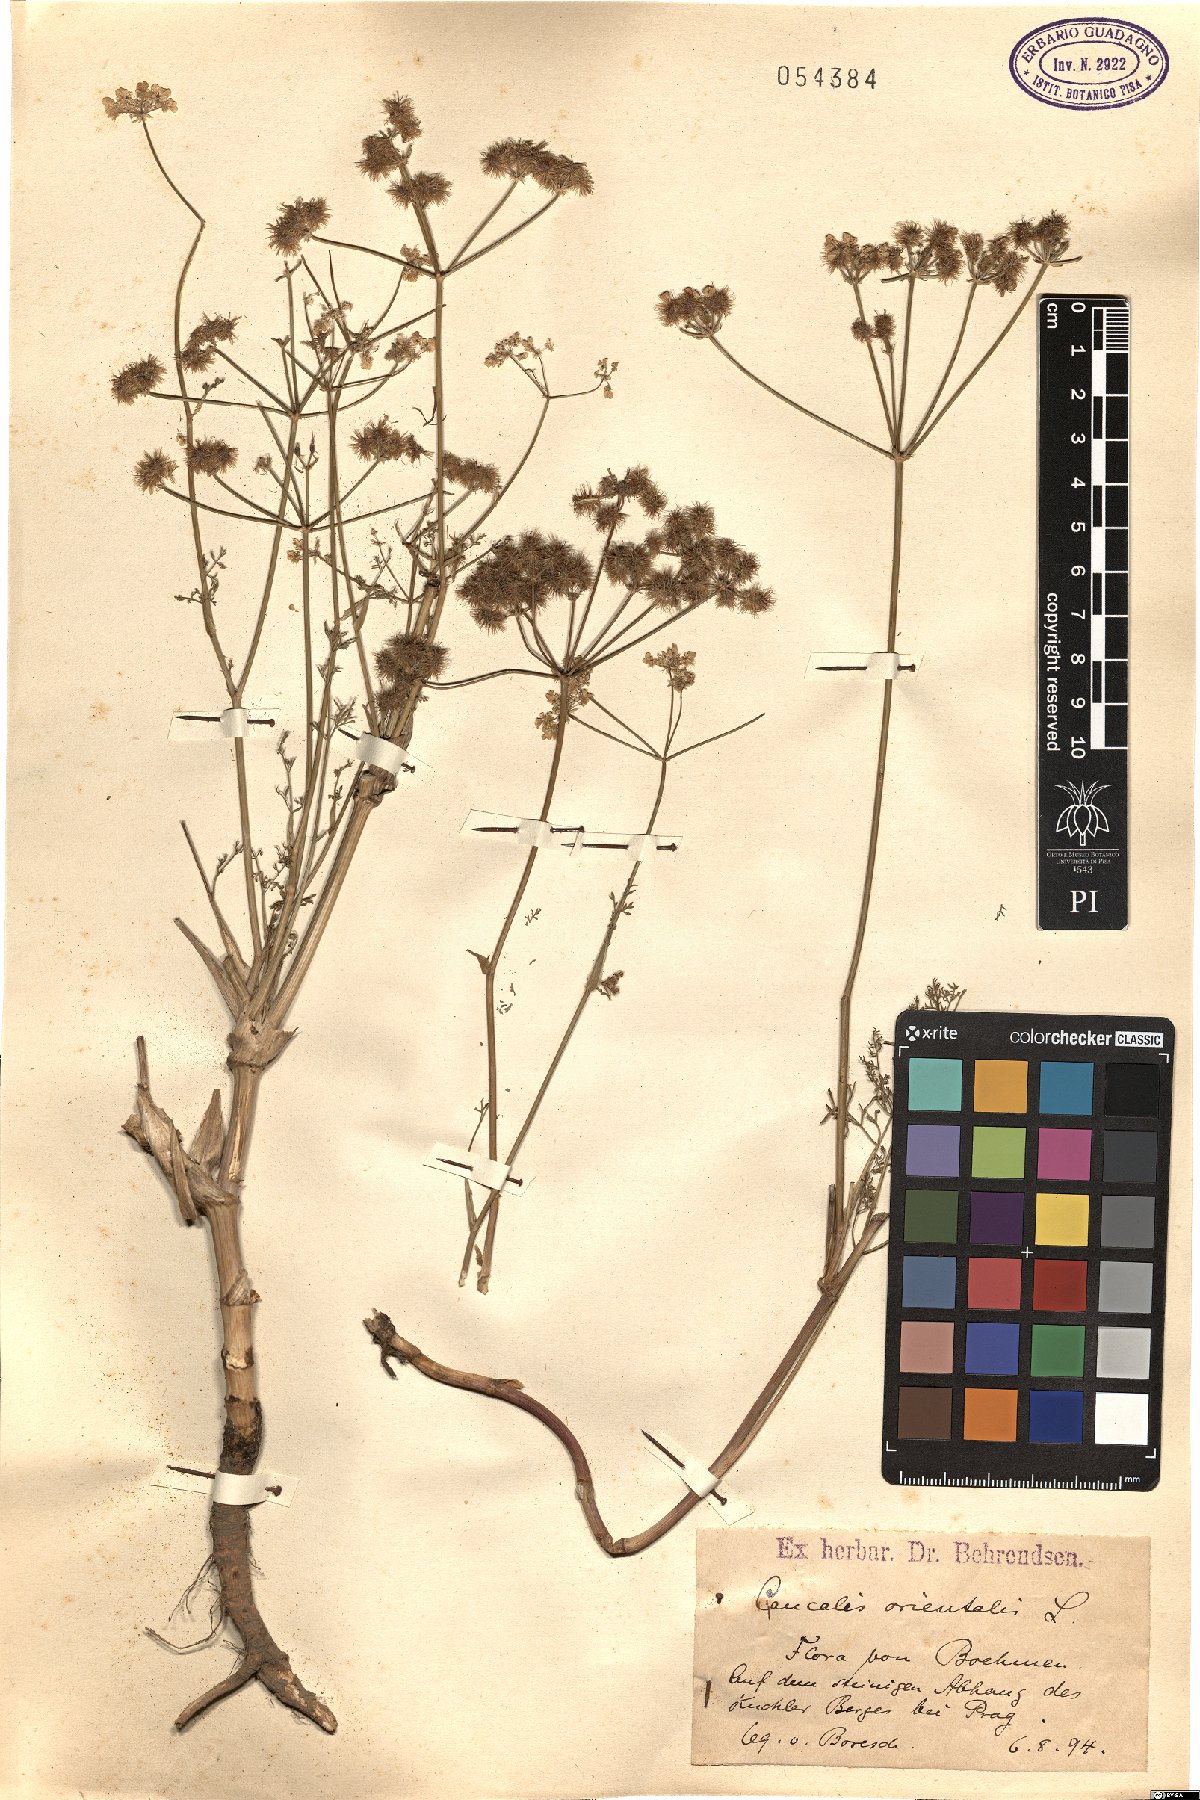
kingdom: Plantae
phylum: Tracheophyta
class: Magnoliopsida
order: Apiales
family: Apiaceae
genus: Astrodaucus
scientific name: Astrodaucus orientalis
